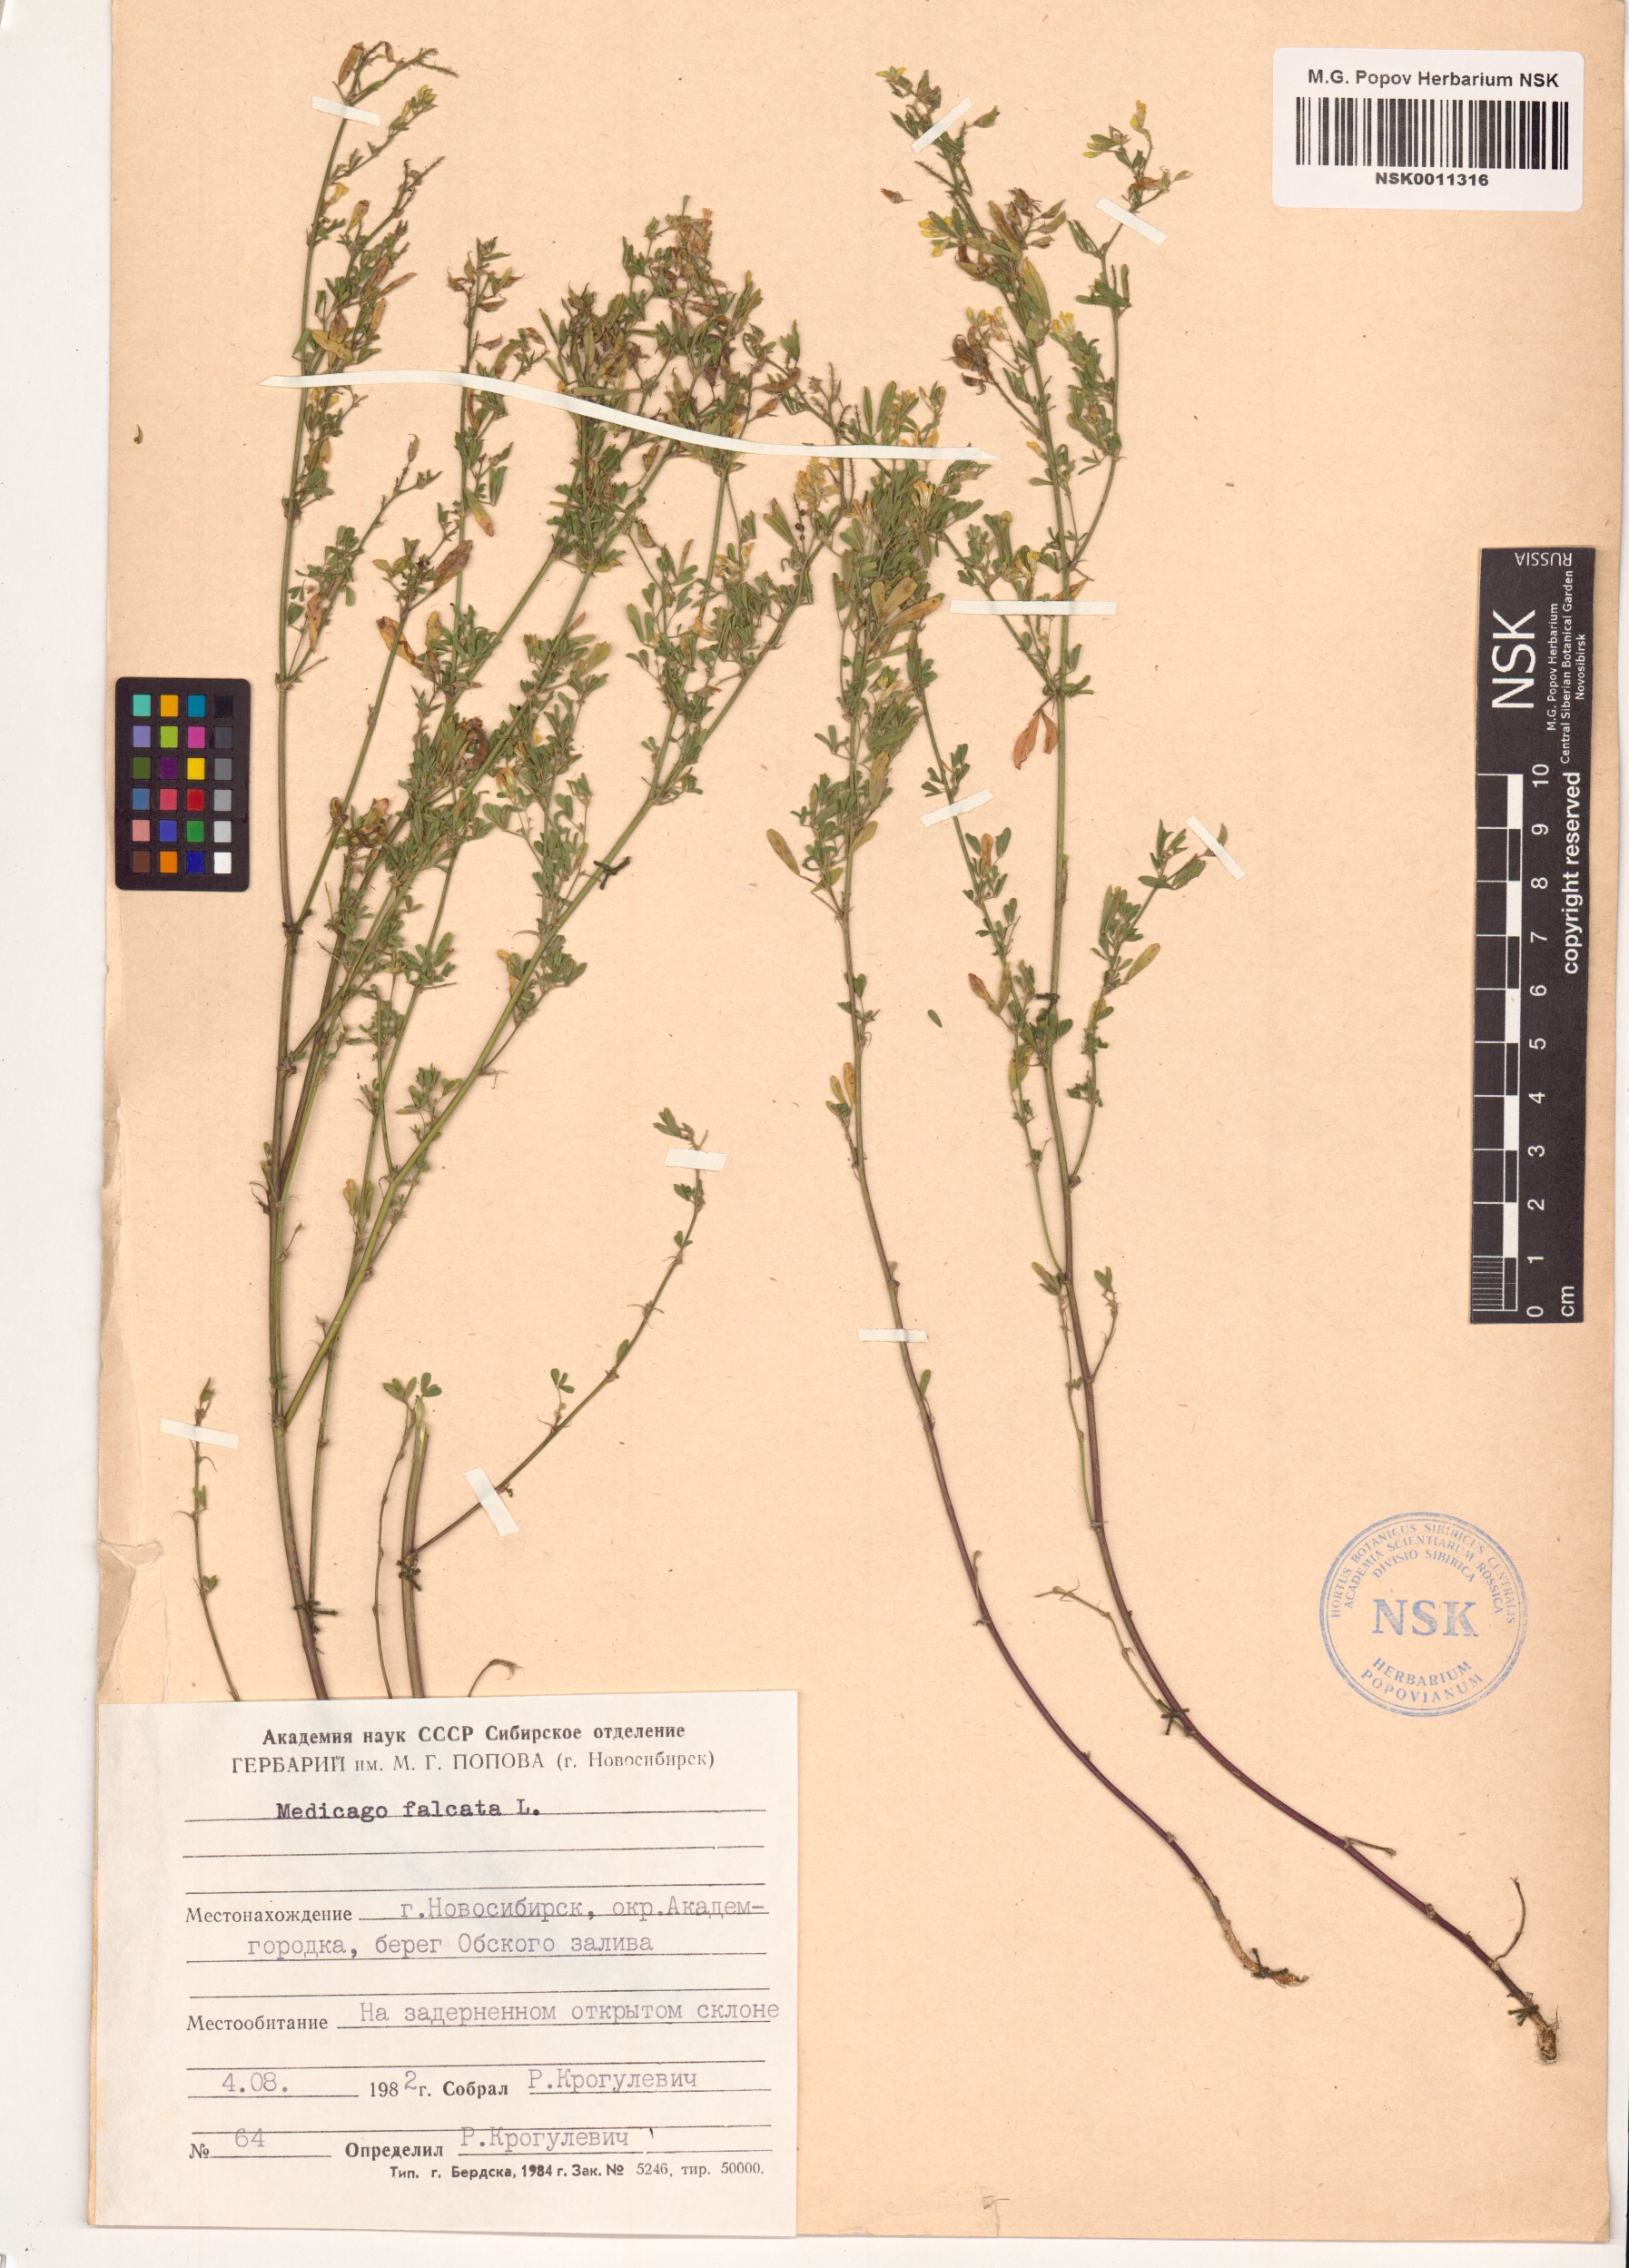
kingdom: Plantae
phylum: Tracheophyta
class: Magnoliopsida
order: Fabales
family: Fabaceae
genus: Medicago
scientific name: Medicago falcata
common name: Sickle medick
